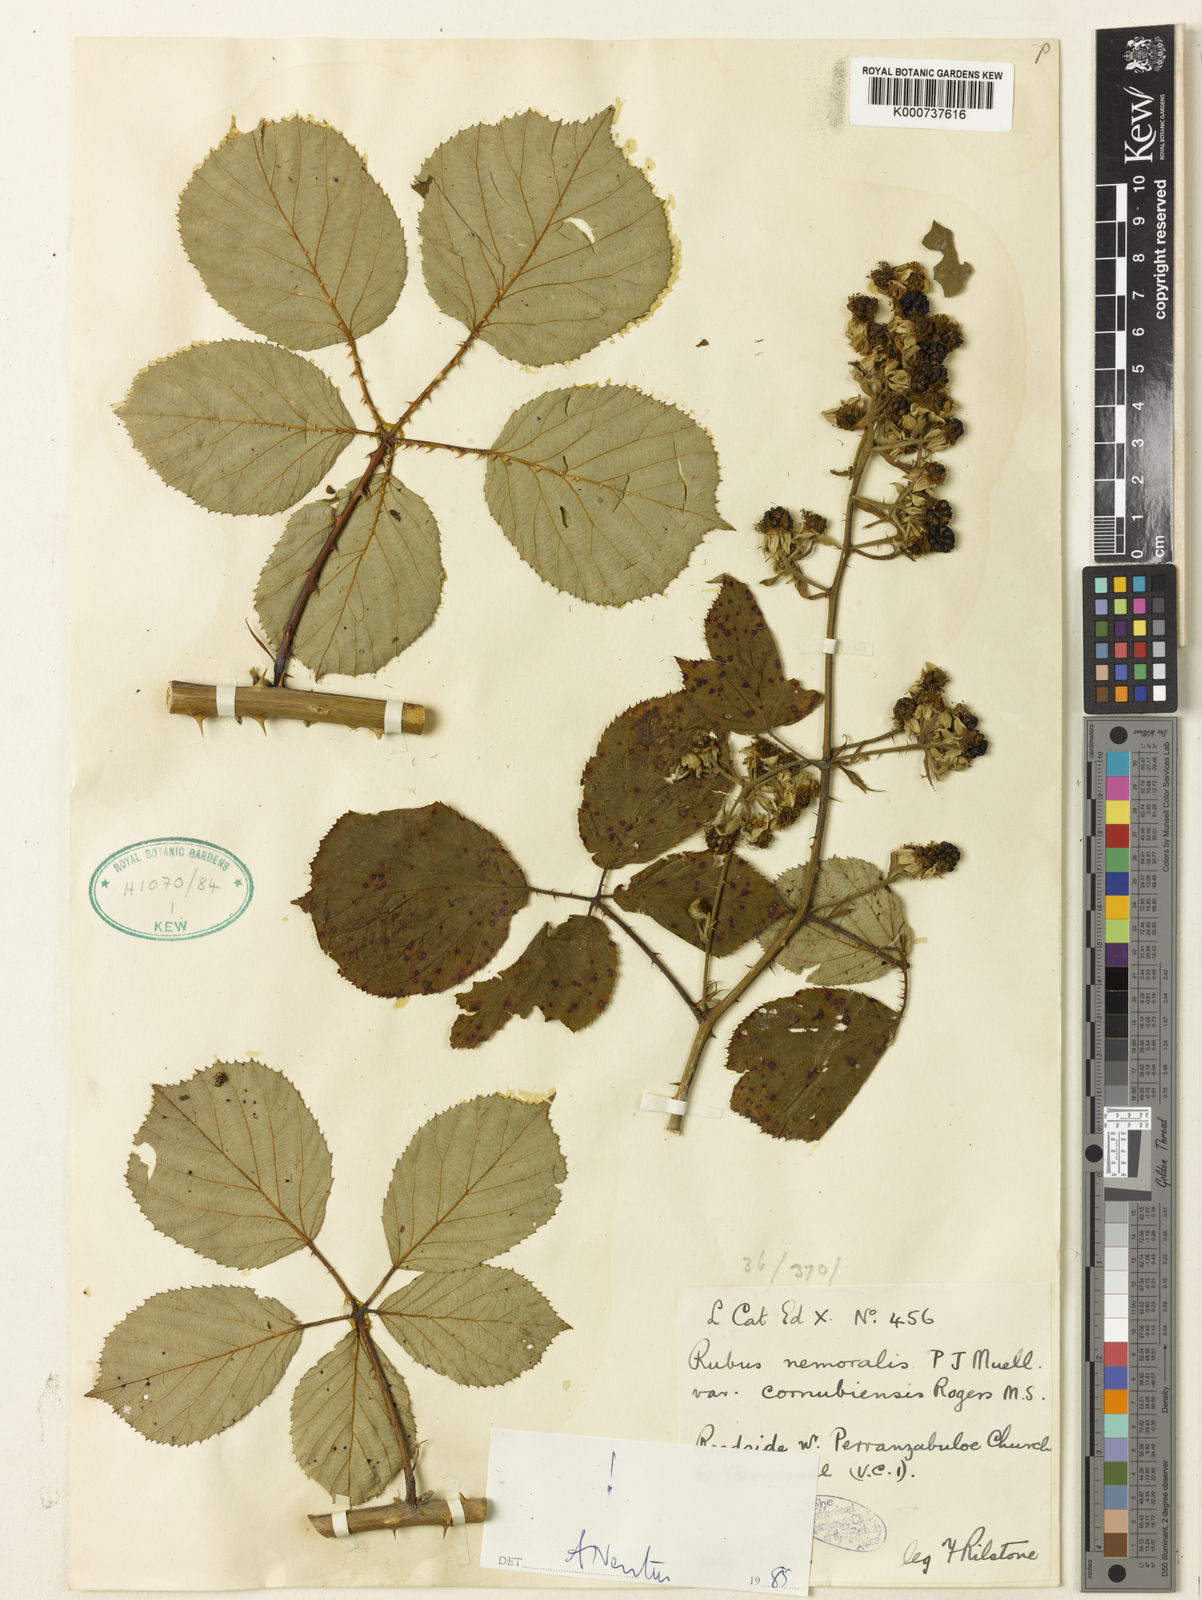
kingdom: Plantae
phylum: Tracheophyta
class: Magnoliopsida
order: Rosales
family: Rosaceae
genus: Rubus
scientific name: Rubus cornubiensis
